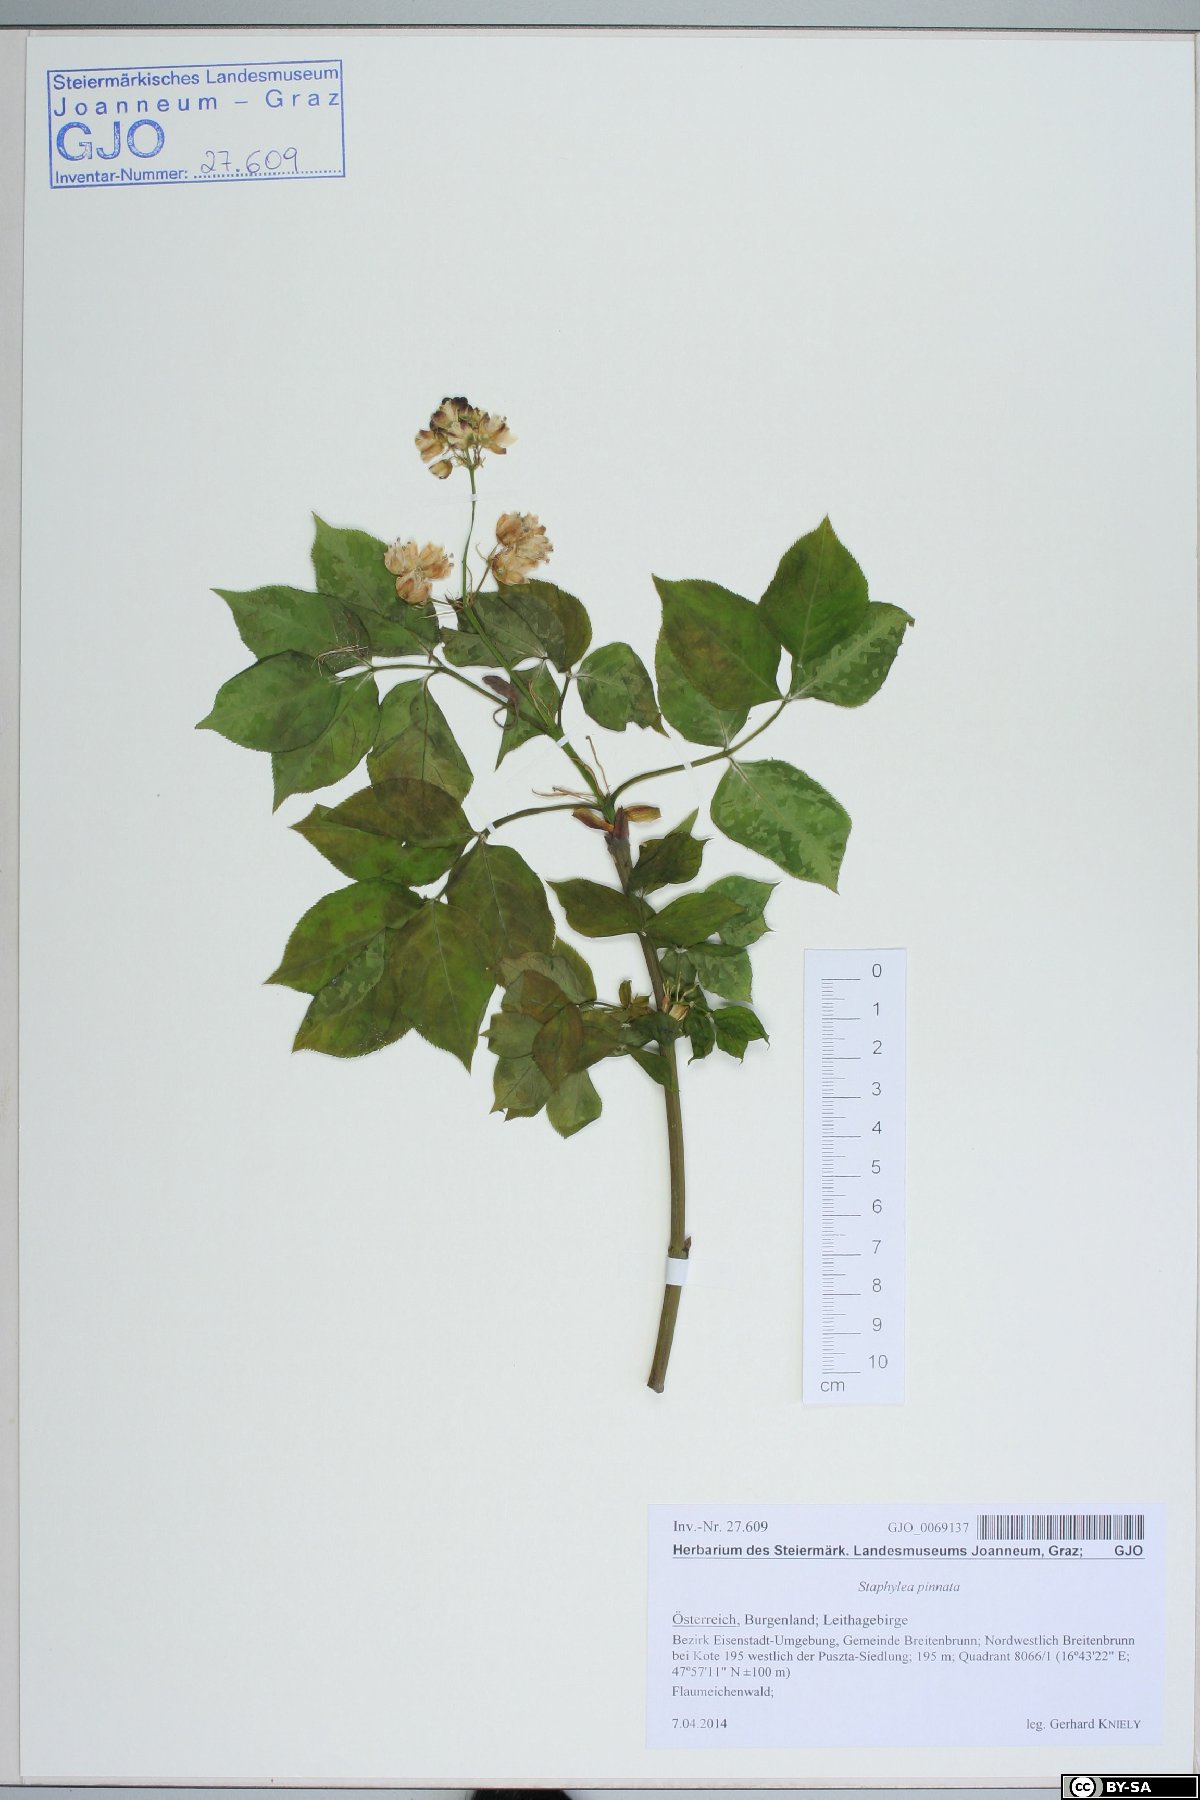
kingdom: Plantae
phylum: Tracheophyta
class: Magnoliopsida
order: Crossosomatales
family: Staphyleaceae
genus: Staphylea
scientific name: Staphylea pinnata
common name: Bladdernut
